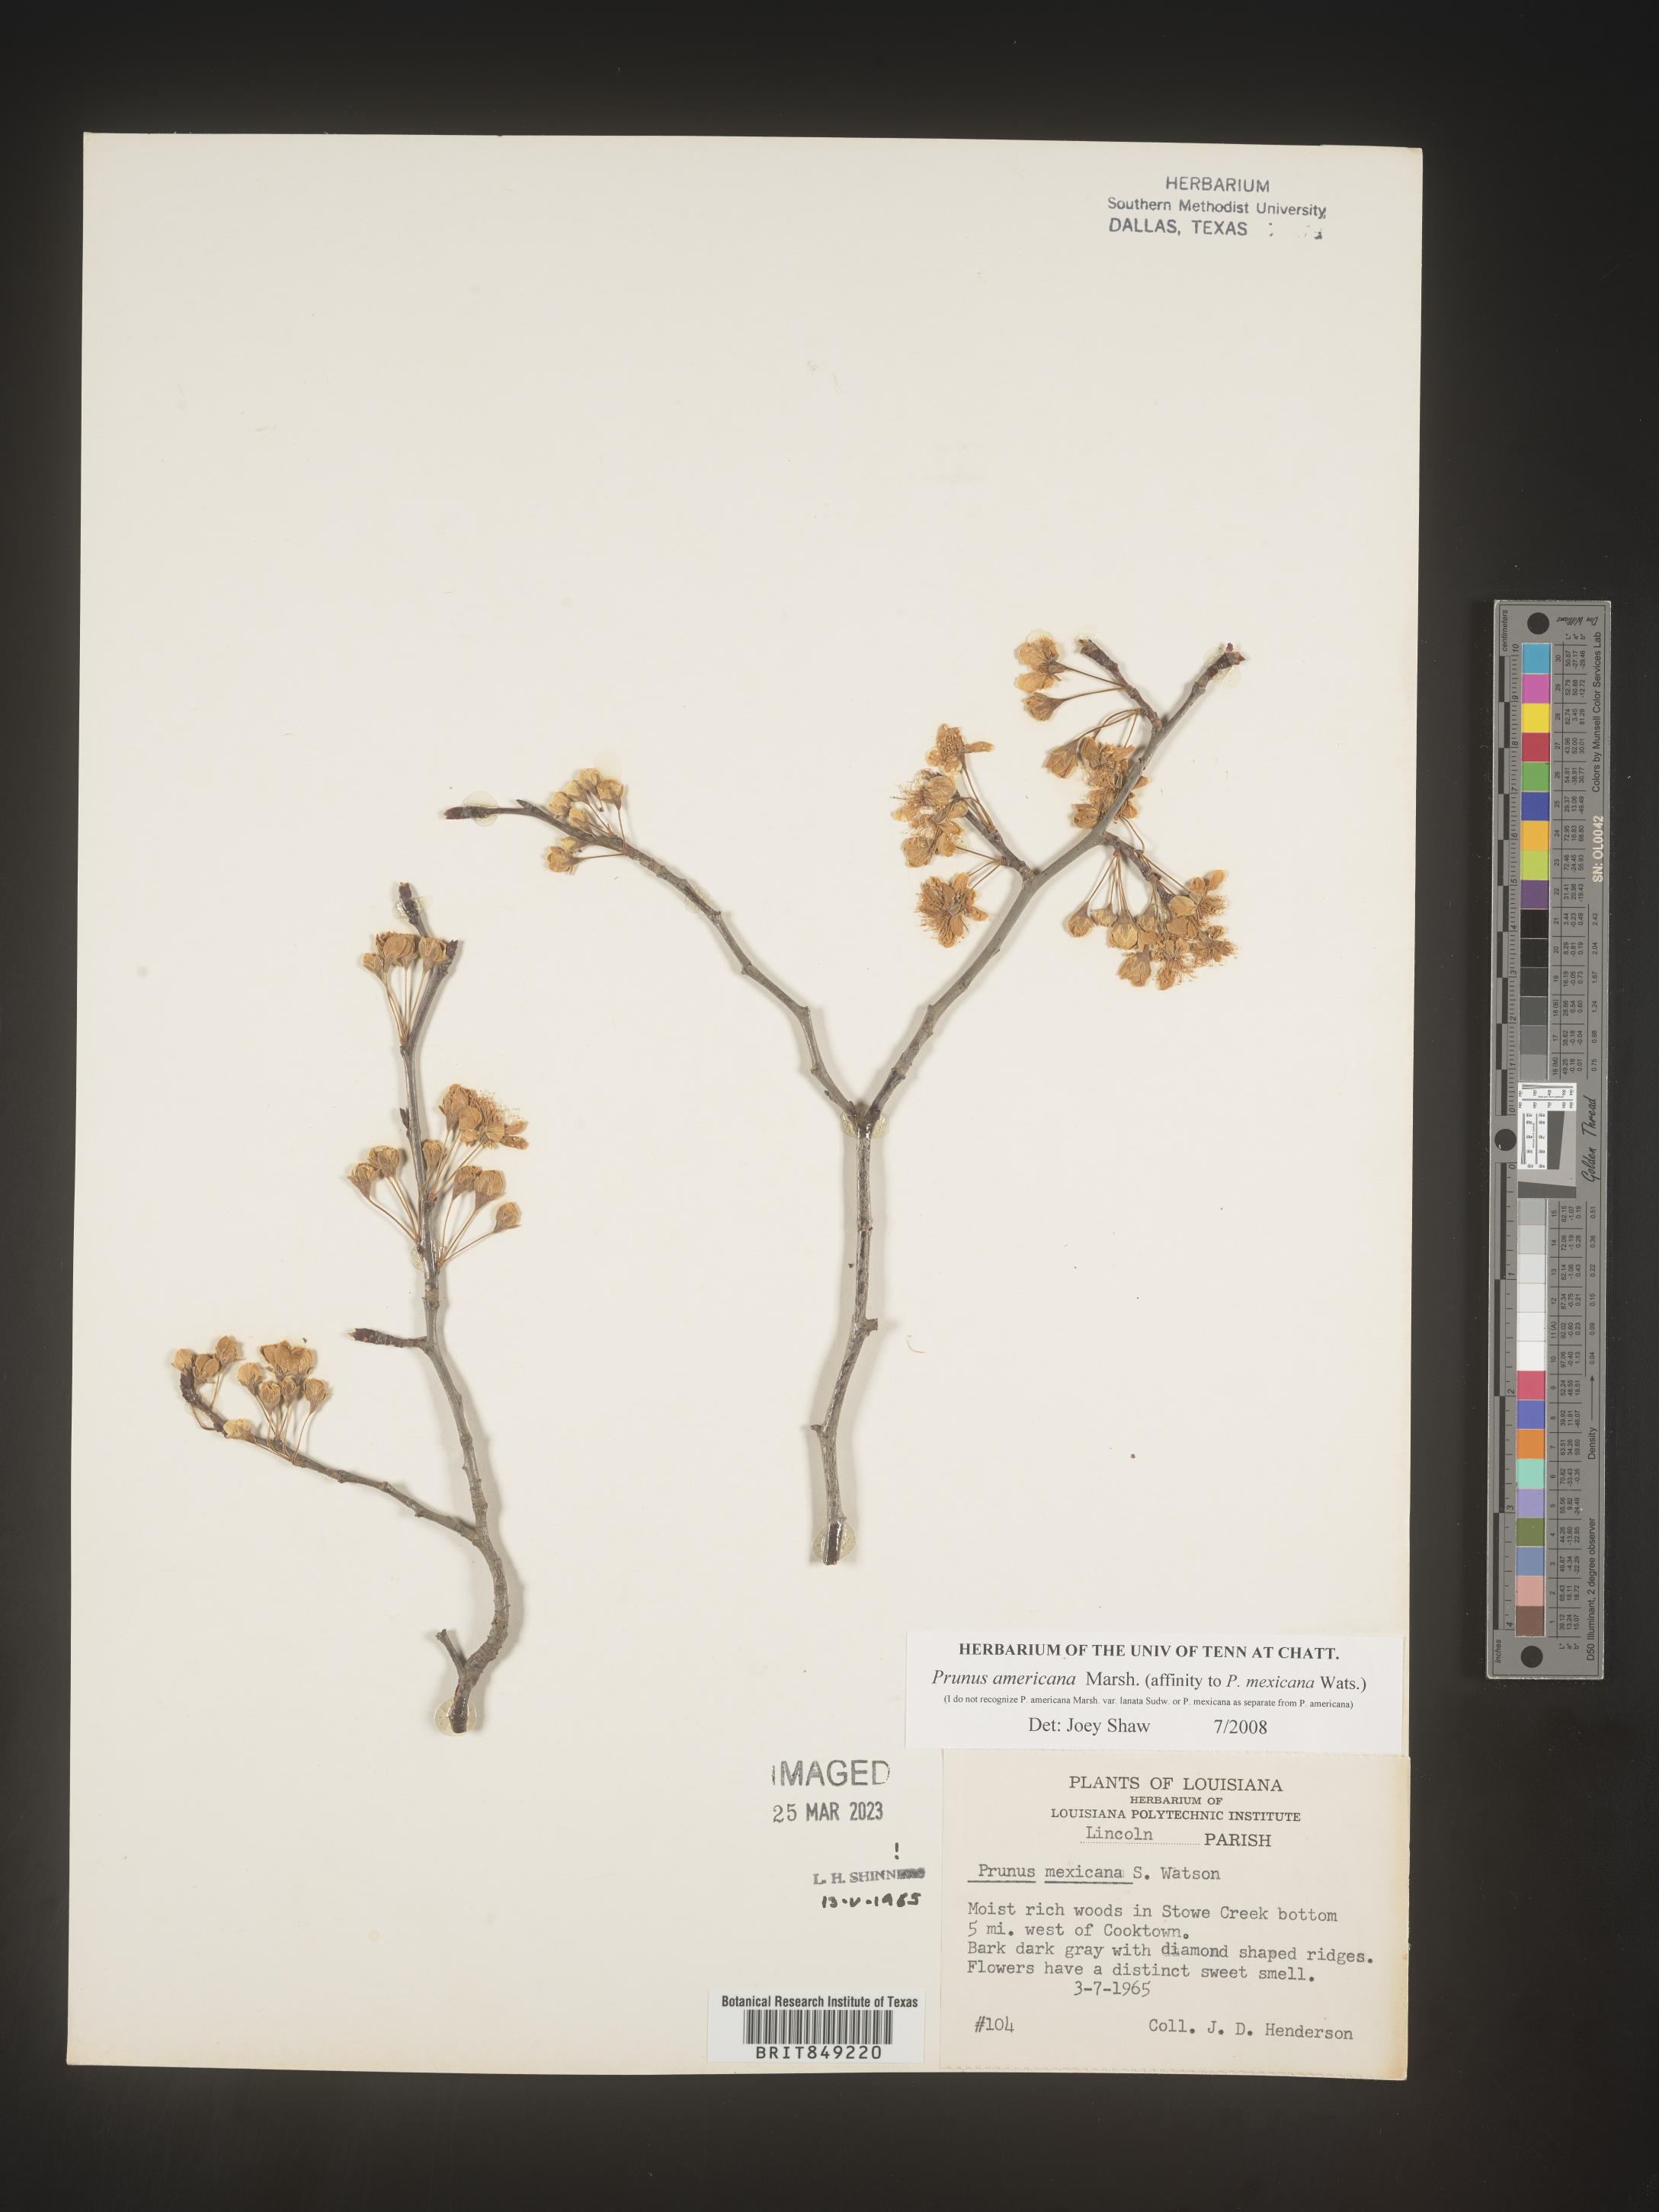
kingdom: Plantae
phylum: Tracheophyta
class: Magnoliopsida
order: Rosales
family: Rosaceae
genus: Prunus
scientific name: Prunus americana
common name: American plum
